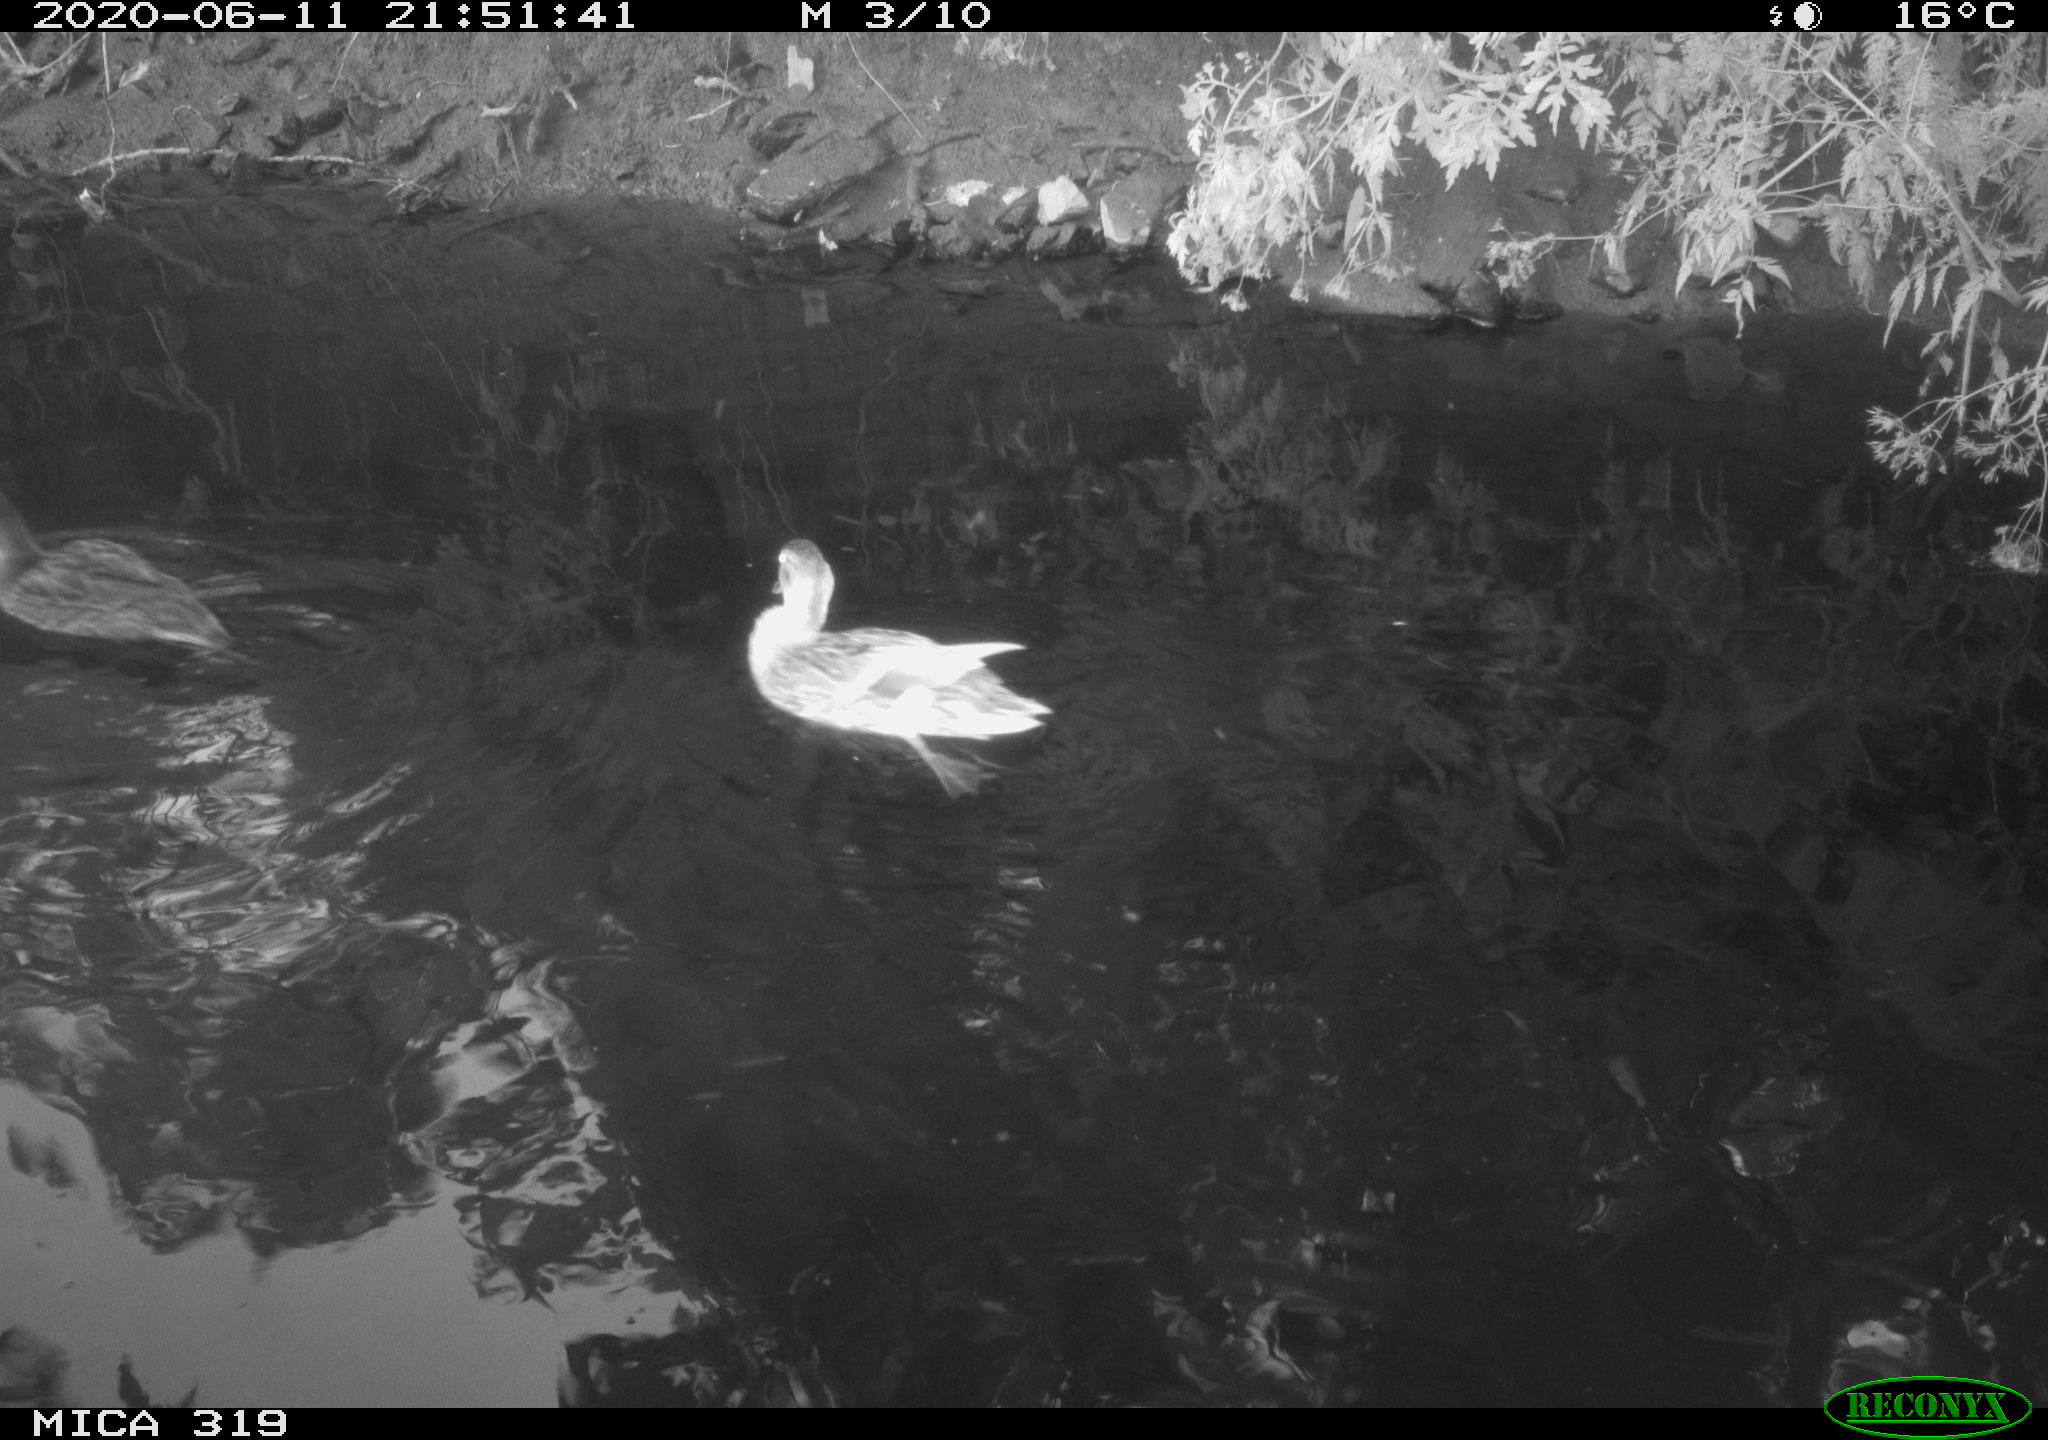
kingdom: Animalia
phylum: Chordata
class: Aves
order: Anseriformes
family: Anatidae
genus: Anas
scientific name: Anas platyrhynchos
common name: Mallard
